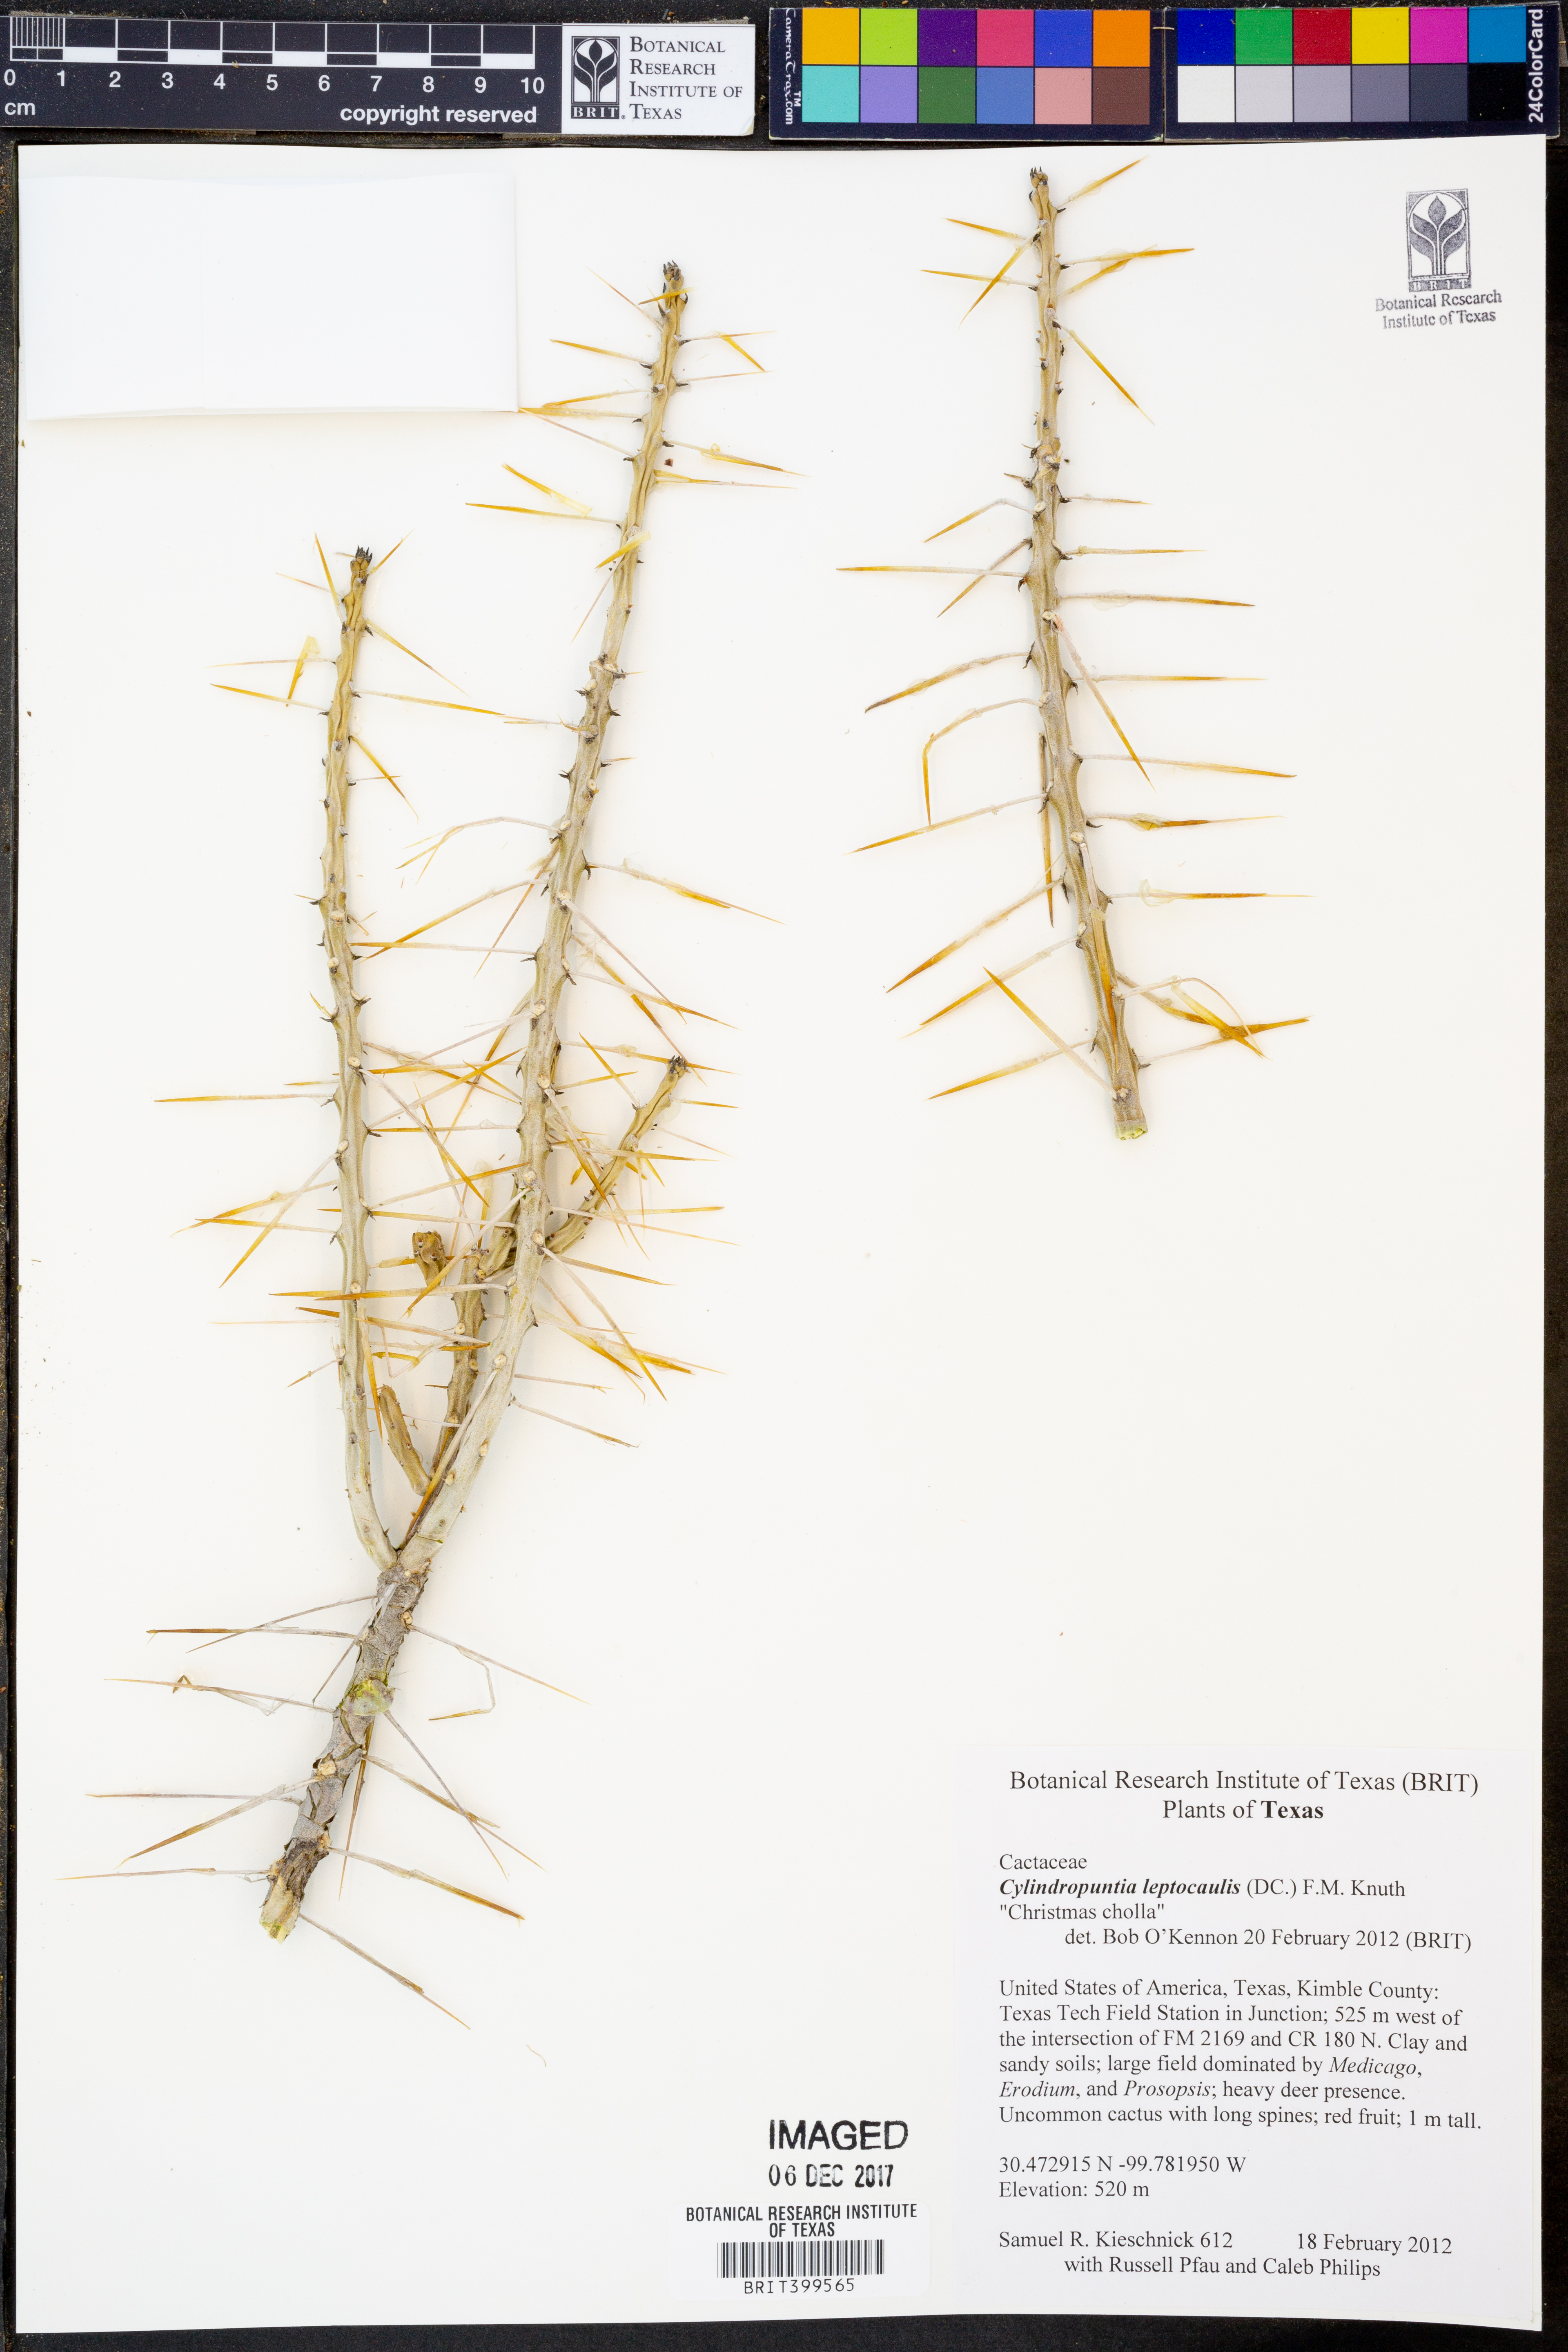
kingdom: Plantae
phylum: Tracheophyta
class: Magnoliopsida
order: Caryophyllales
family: Cactaceae
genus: Cylindropuntia
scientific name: Cylindropuntia leptocaulis
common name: Christmas cactus
